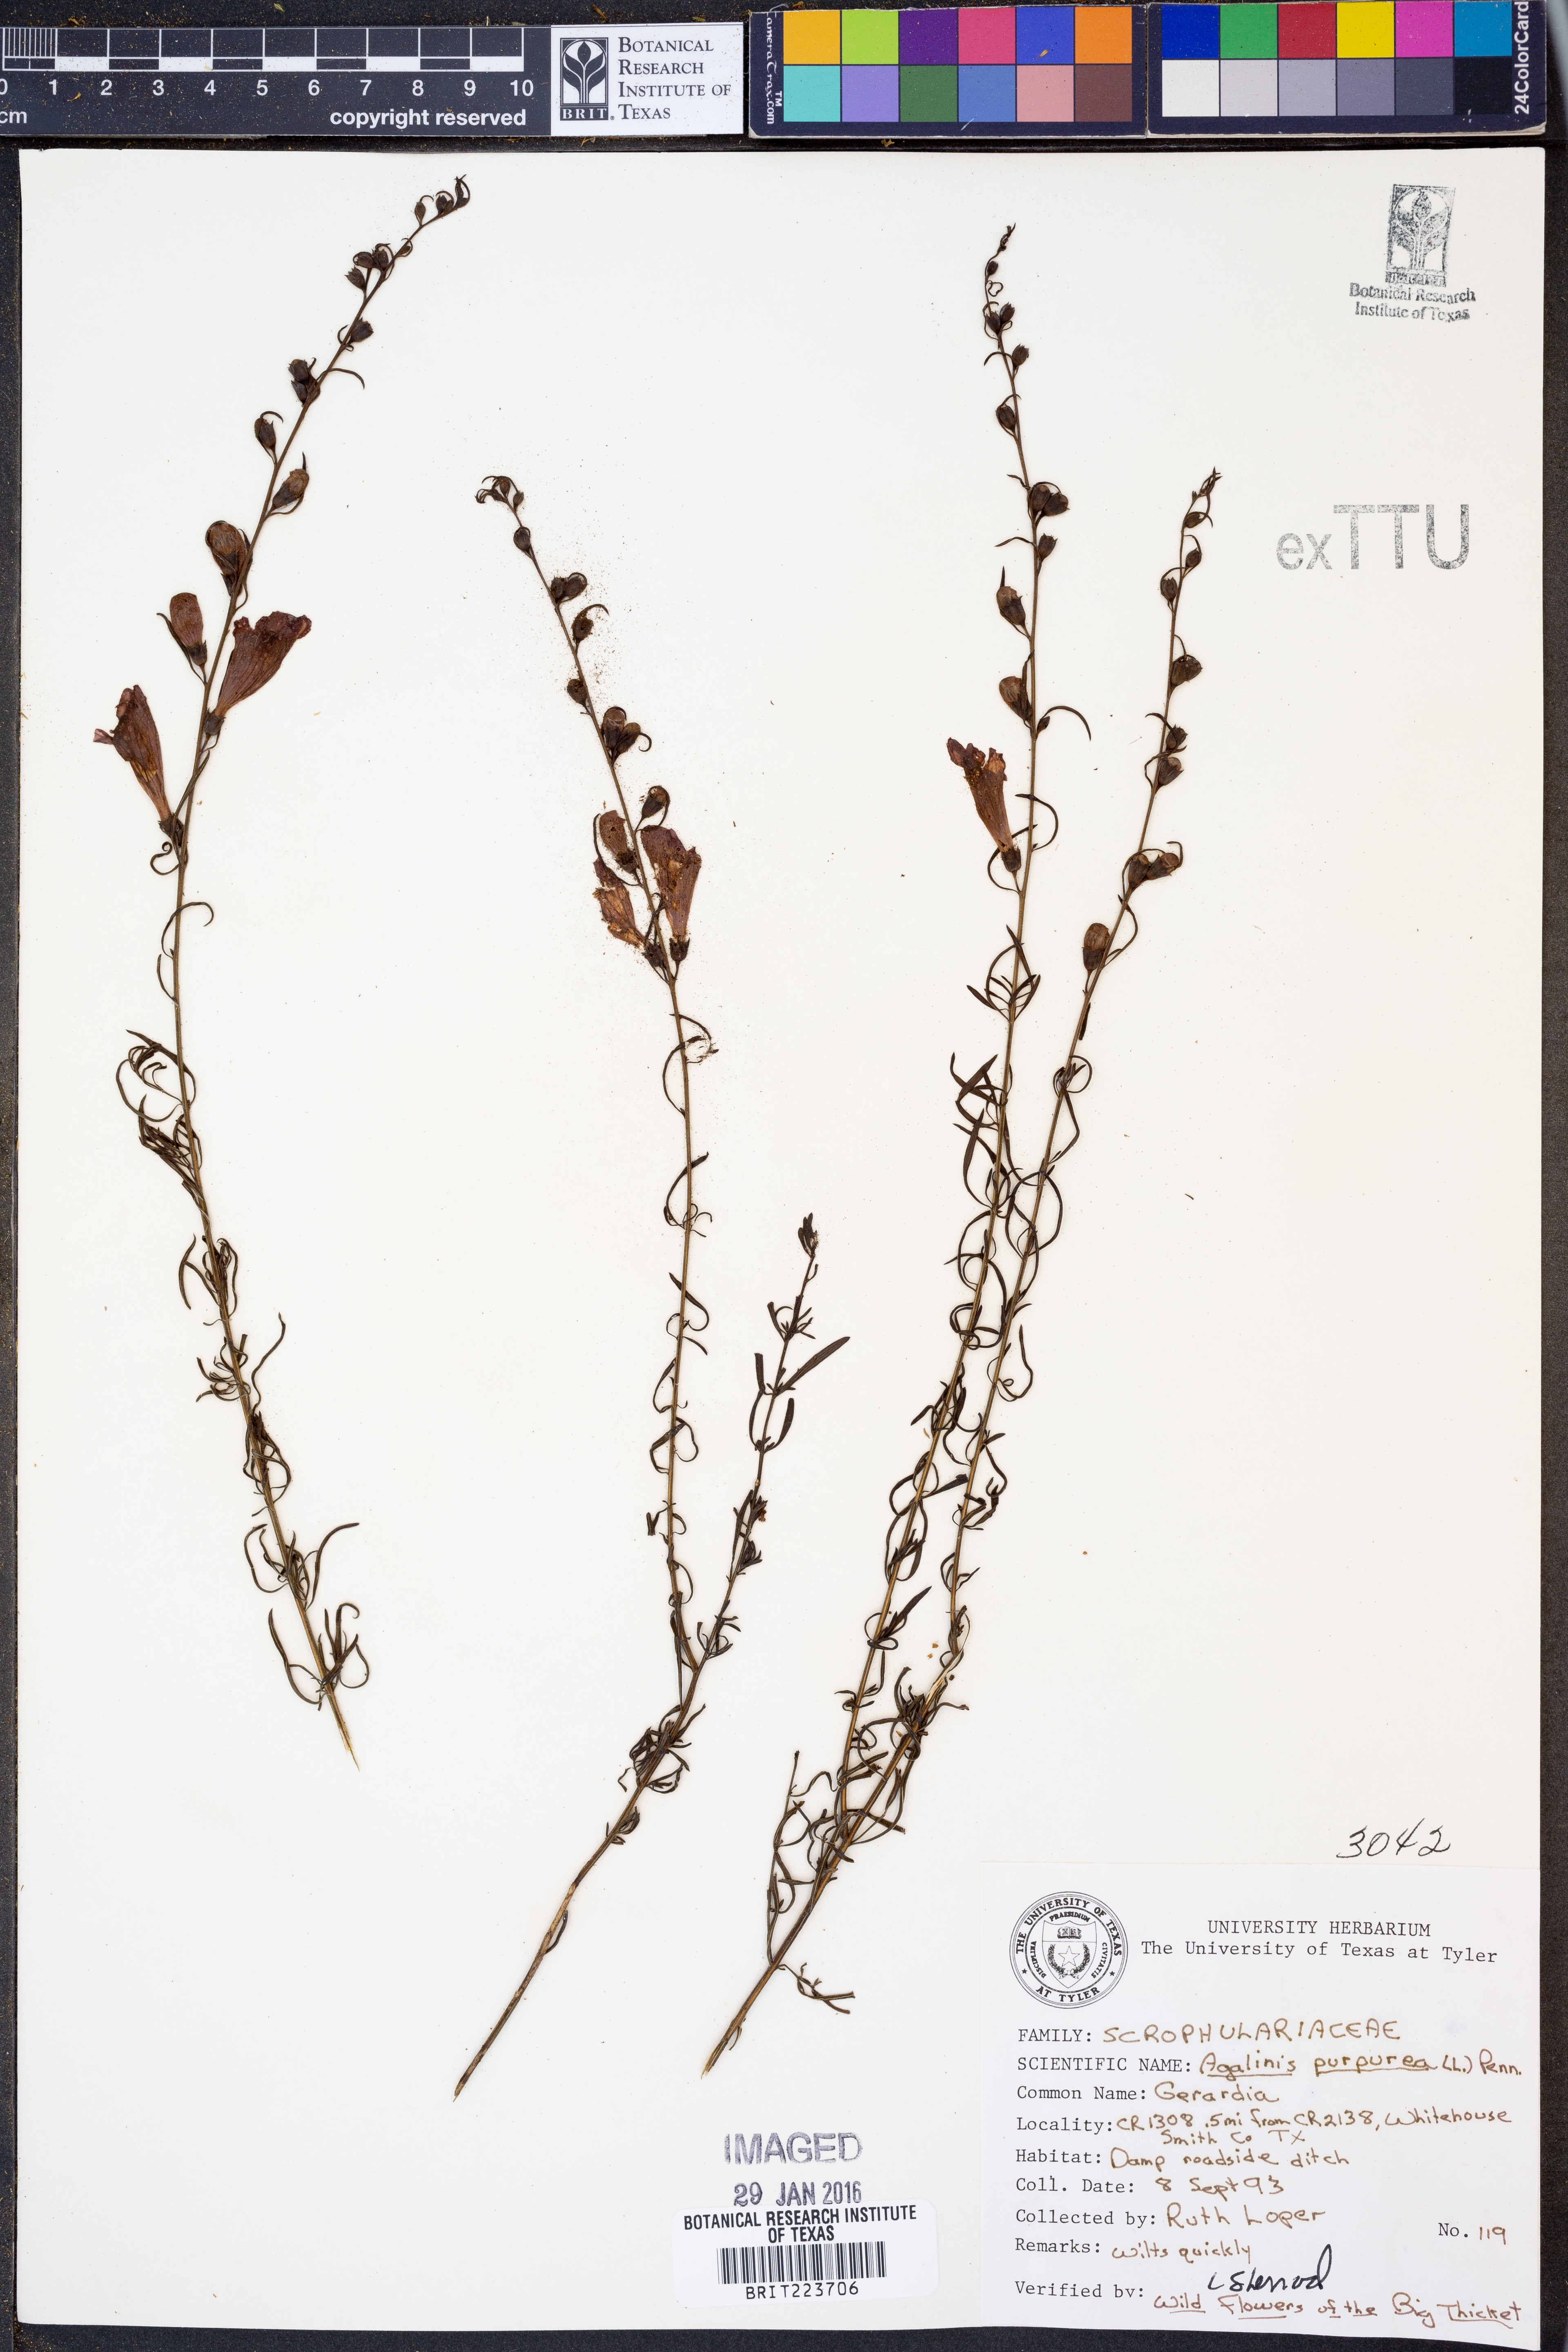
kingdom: Plantae
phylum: Tracheophyta
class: Magnoliopsida
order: Lamiales
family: Orobanchaceae
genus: Agalinis
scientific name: Agalinis purpurea
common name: Purple false foxglove
